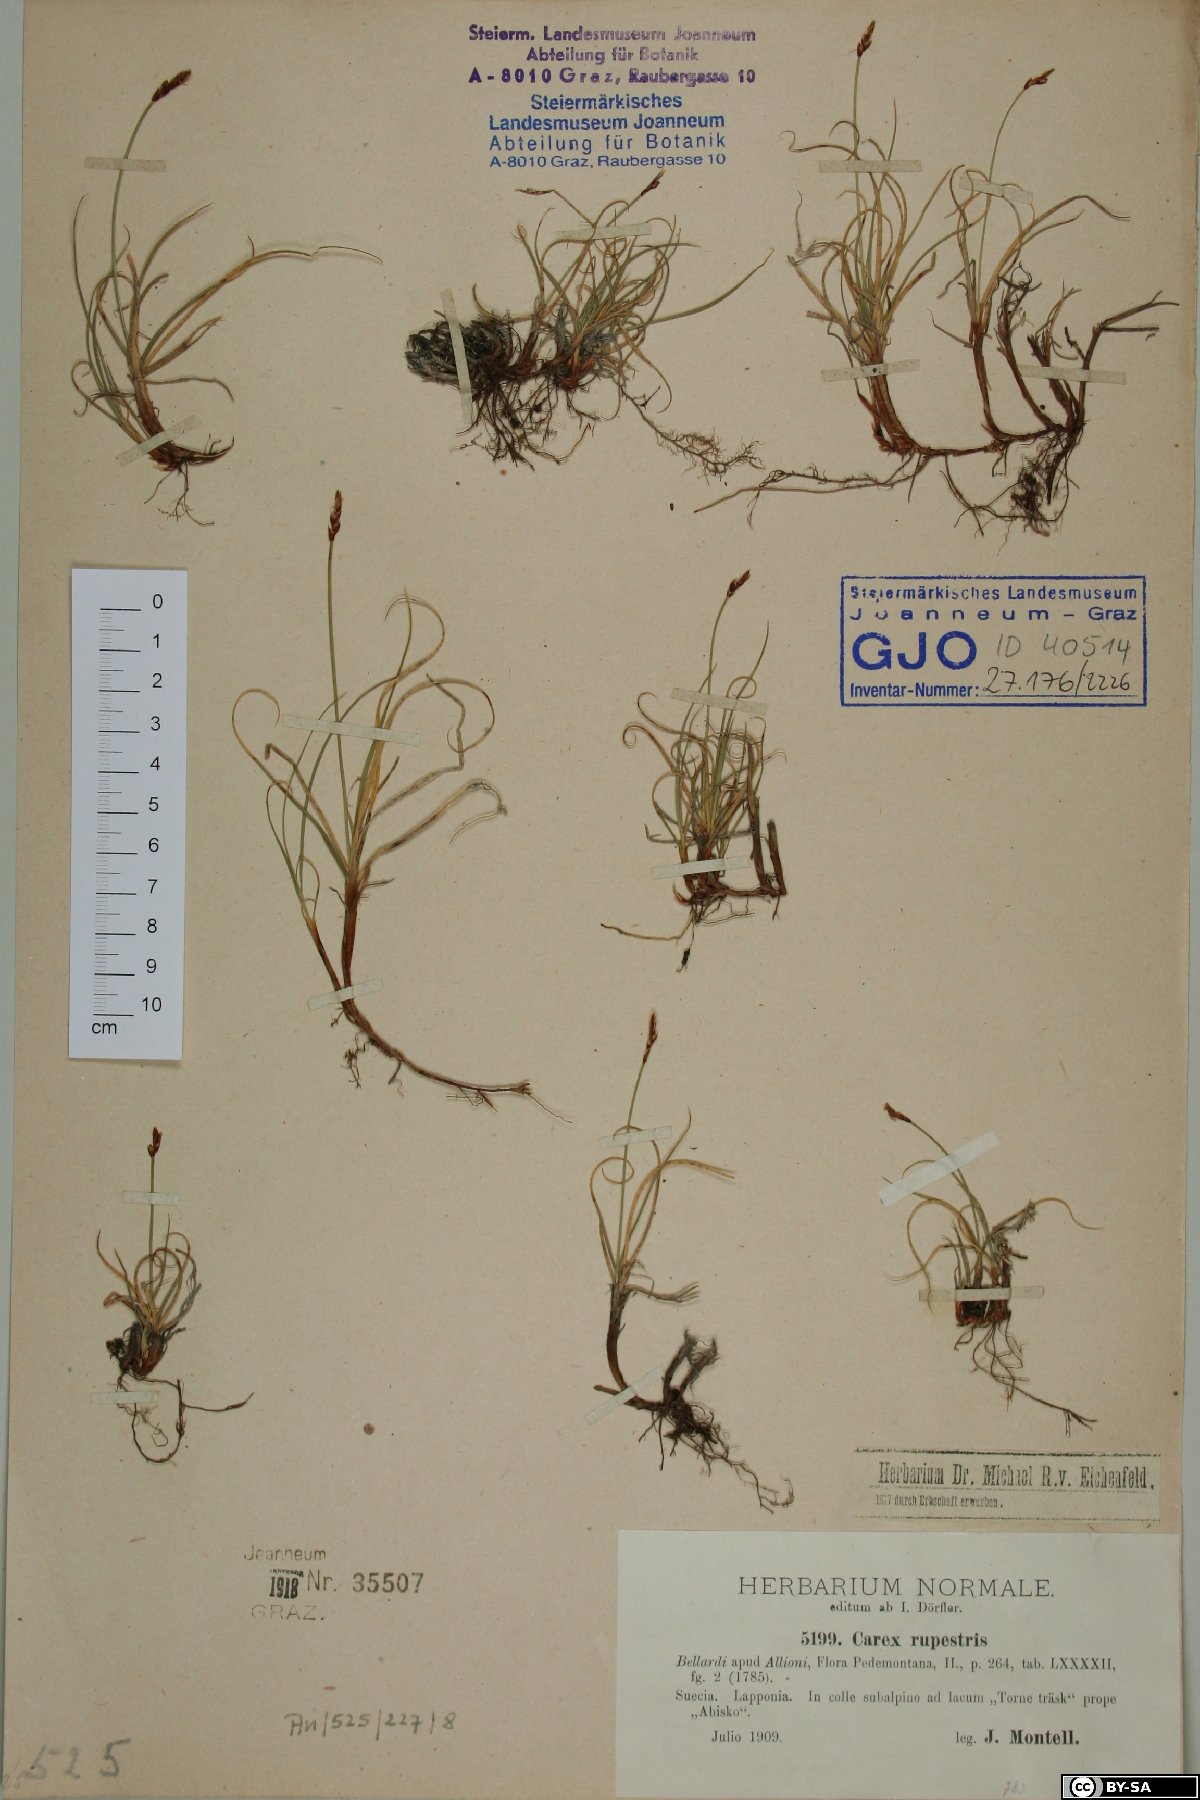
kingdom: Plantae
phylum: Tracheophyta
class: Liliopsida
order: Poales
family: Cyperaceae
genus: Carex
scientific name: Carex rupestris
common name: Rock sedge
